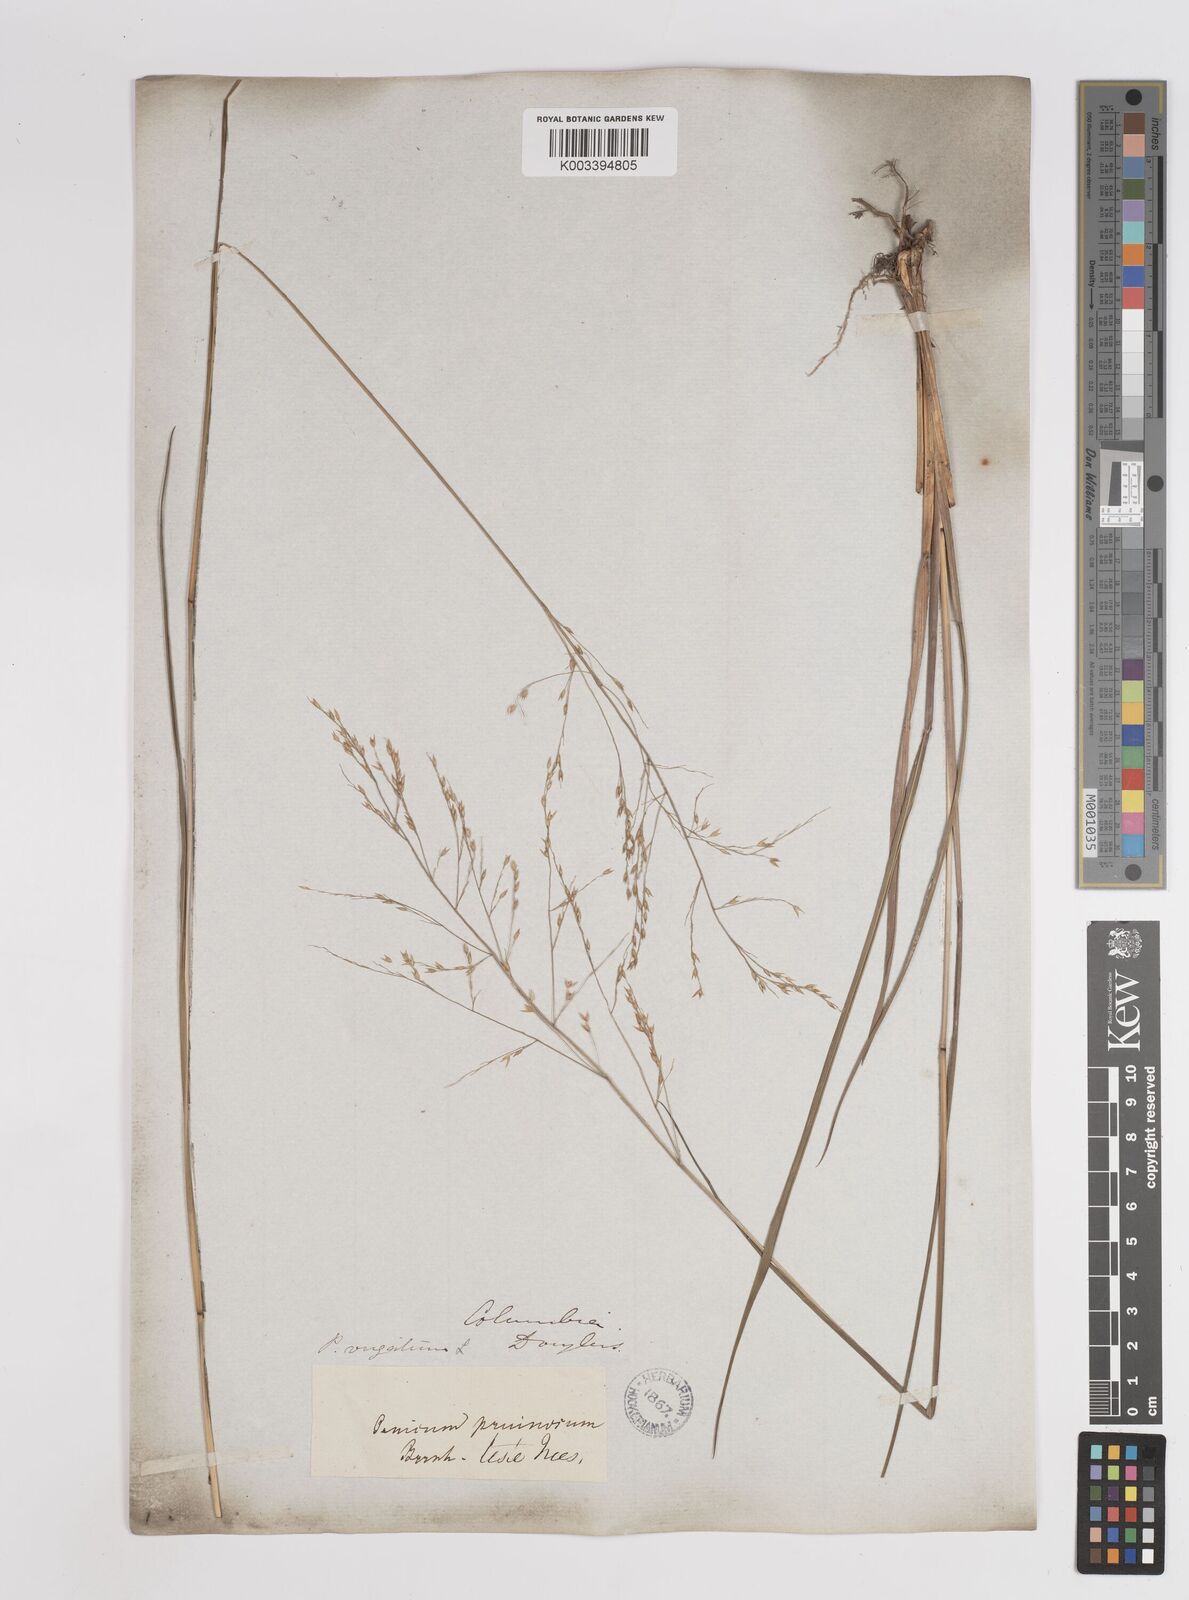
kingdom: Plantae
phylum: Tracheophyta
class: Liliopsida
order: Poales
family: Poaceae
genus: Panicum
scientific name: Panicum virgatum
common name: Switchgrass
